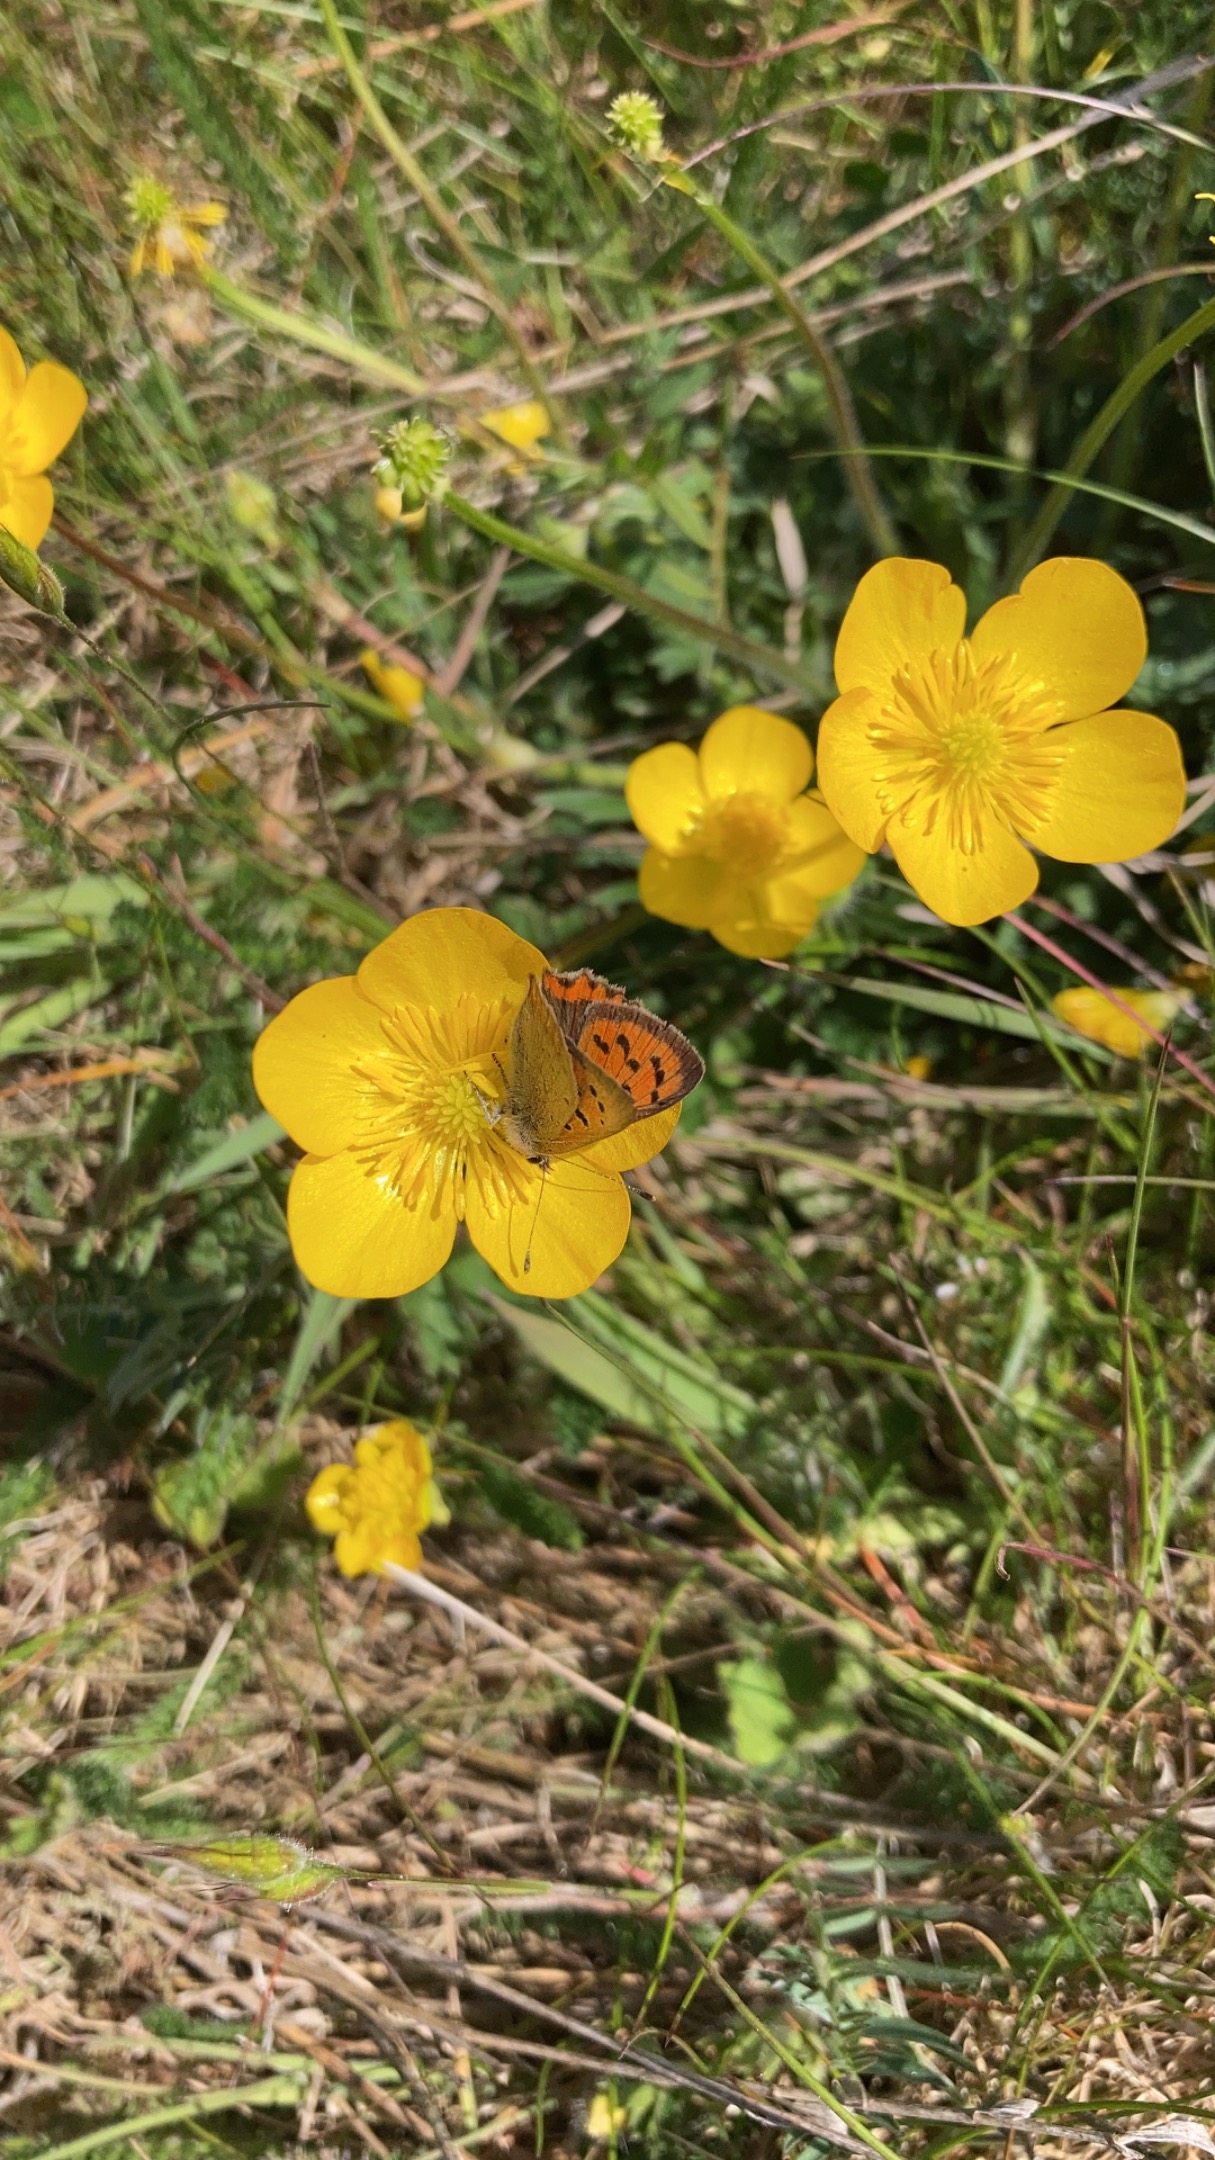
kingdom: Animalia
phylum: Arthropoda
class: Insecta
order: Lepidoptera
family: Lycaenidae
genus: Lycaena
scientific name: Lycaena phlaeas
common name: Lille ildfugl
